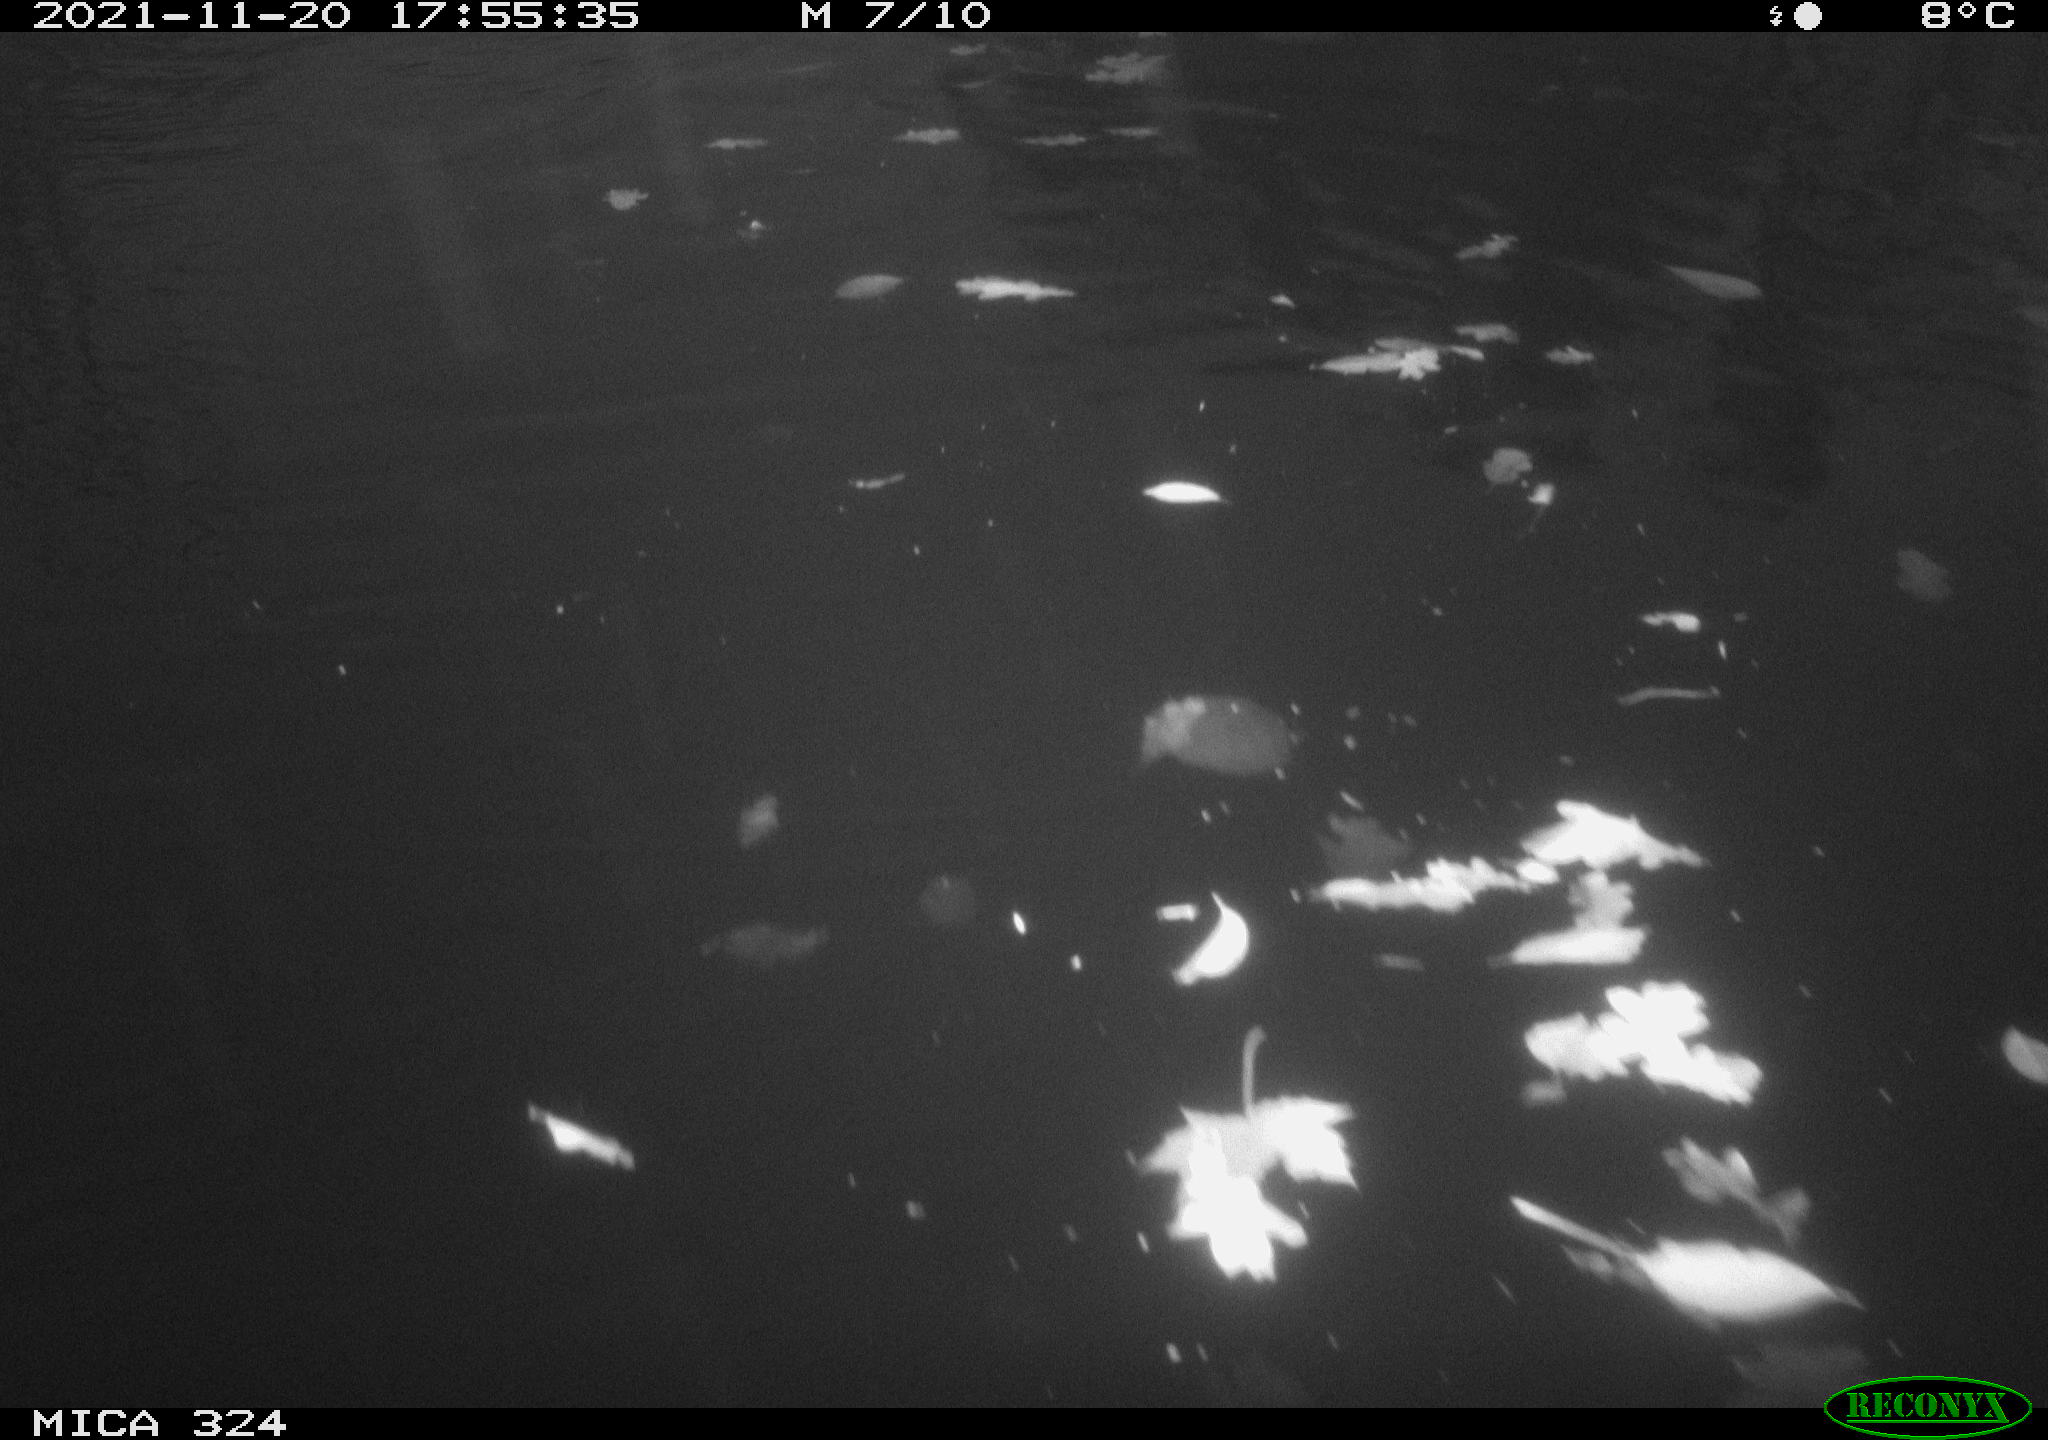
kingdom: Animalia
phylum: Chordata
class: Mammalia
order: Rodentia
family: Cricetidae
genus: Ondatra
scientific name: Ondatra zibethicus
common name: Muskrat
